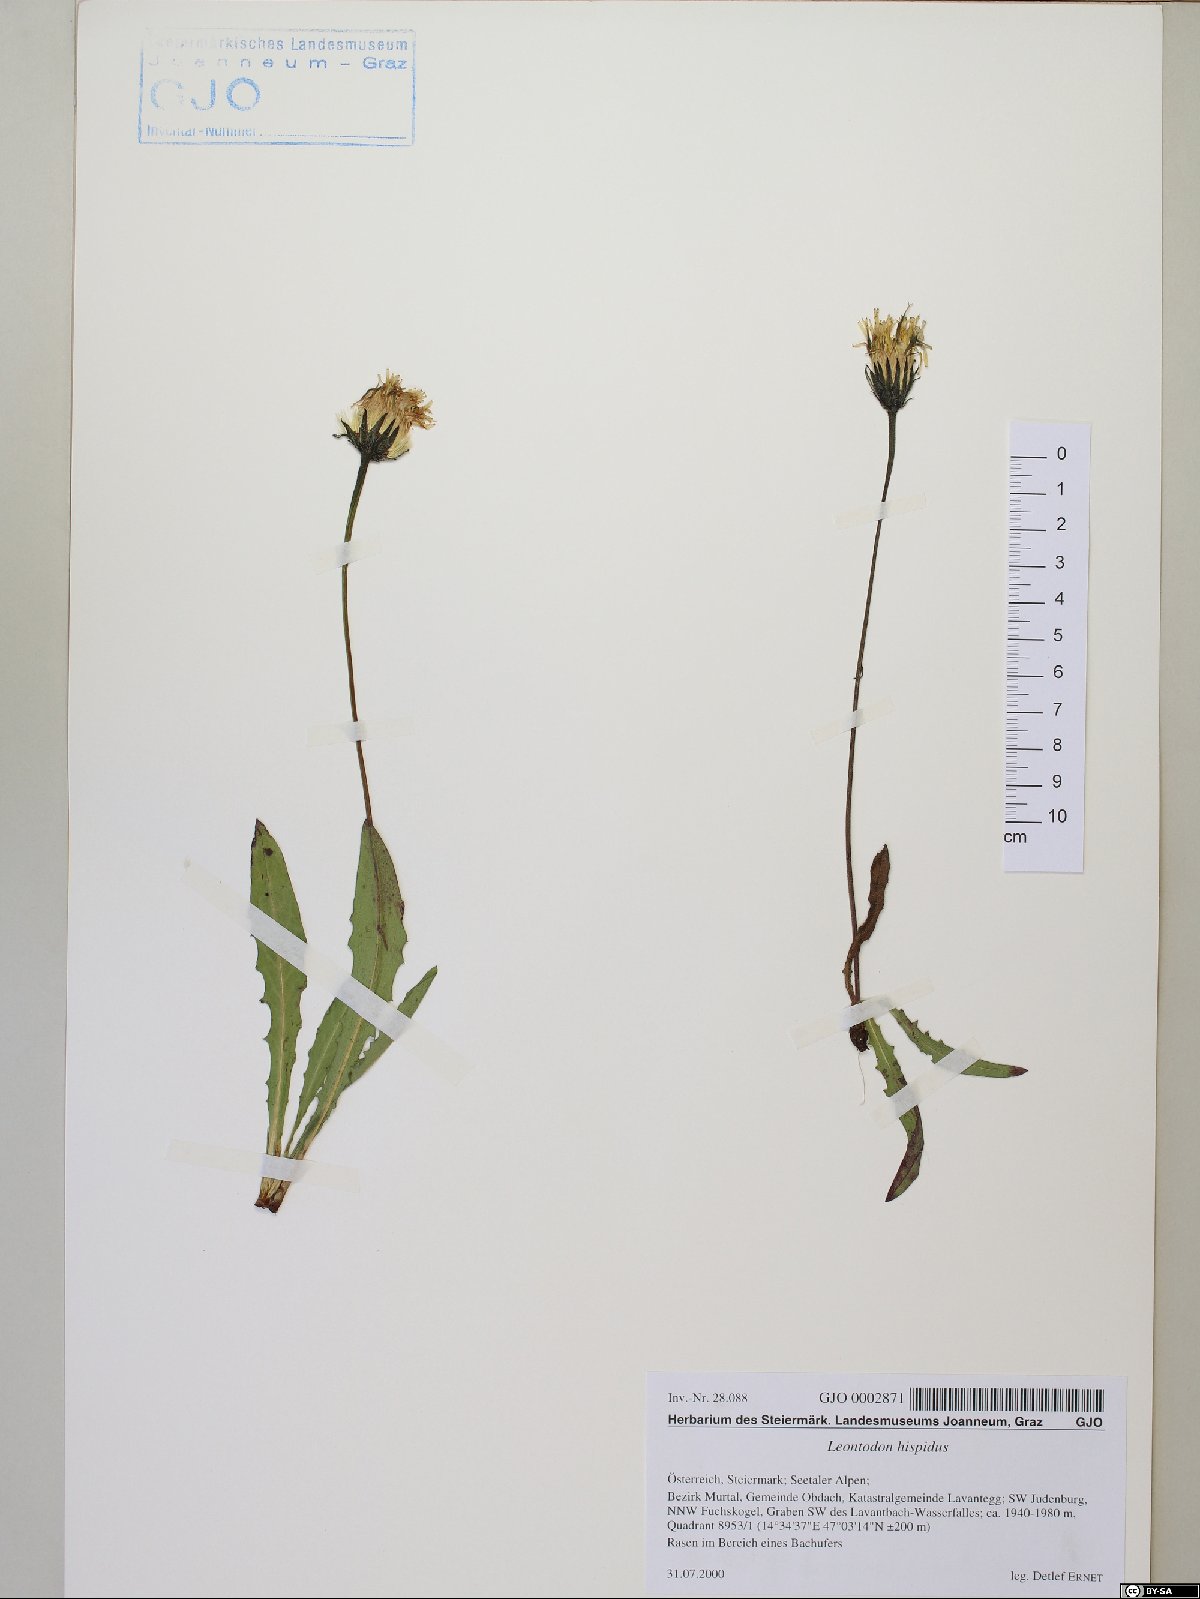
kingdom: Plantae
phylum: Tracheophyta
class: Magnoliopsida
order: Asterales
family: Asteraceae
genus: Leontodon
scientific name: Leontodon hispidus
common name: Rough hawkbit
